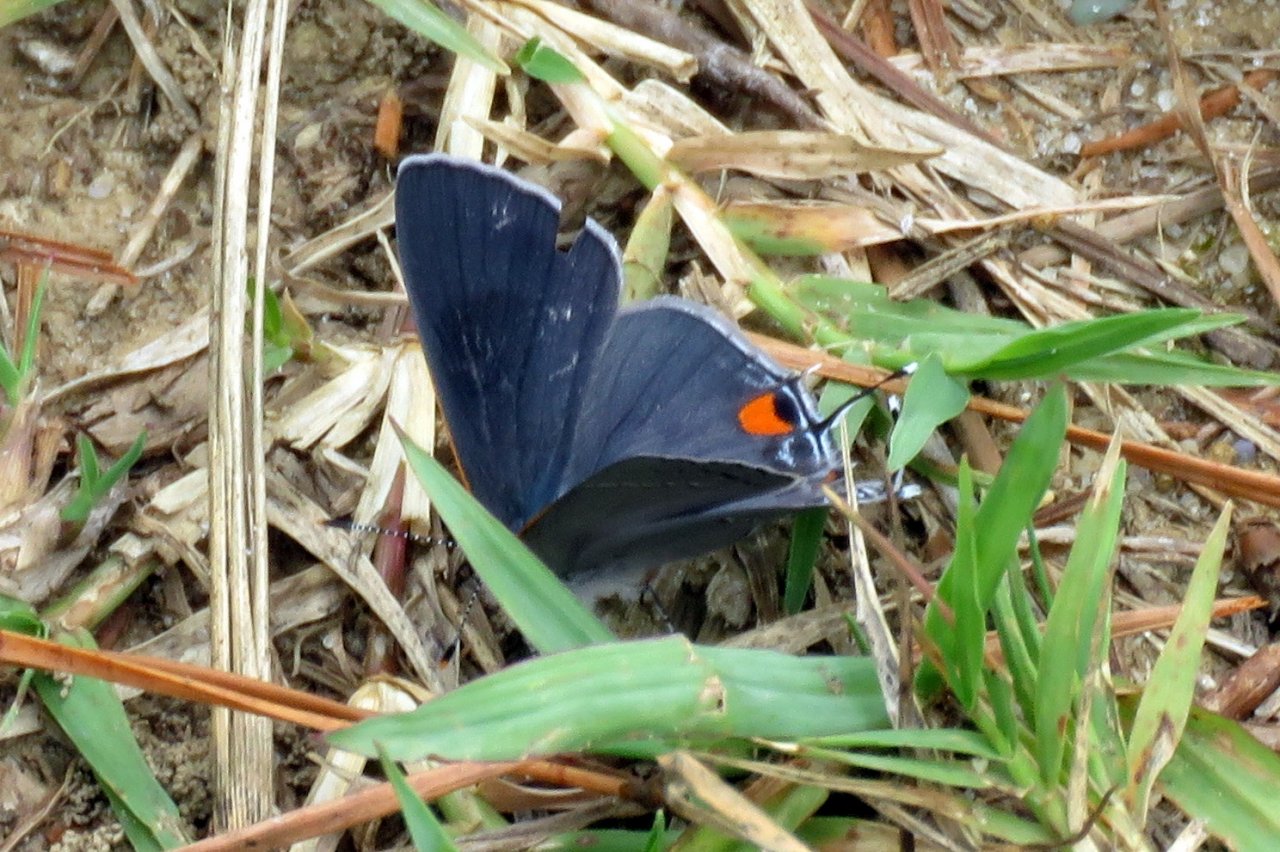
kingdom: Animalia
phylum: Arthropoda
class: Insecta
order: Lepidoptera
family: Lycaenidae
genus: Strymon
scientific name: Strymon melinus
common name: Gray Hairstreak
